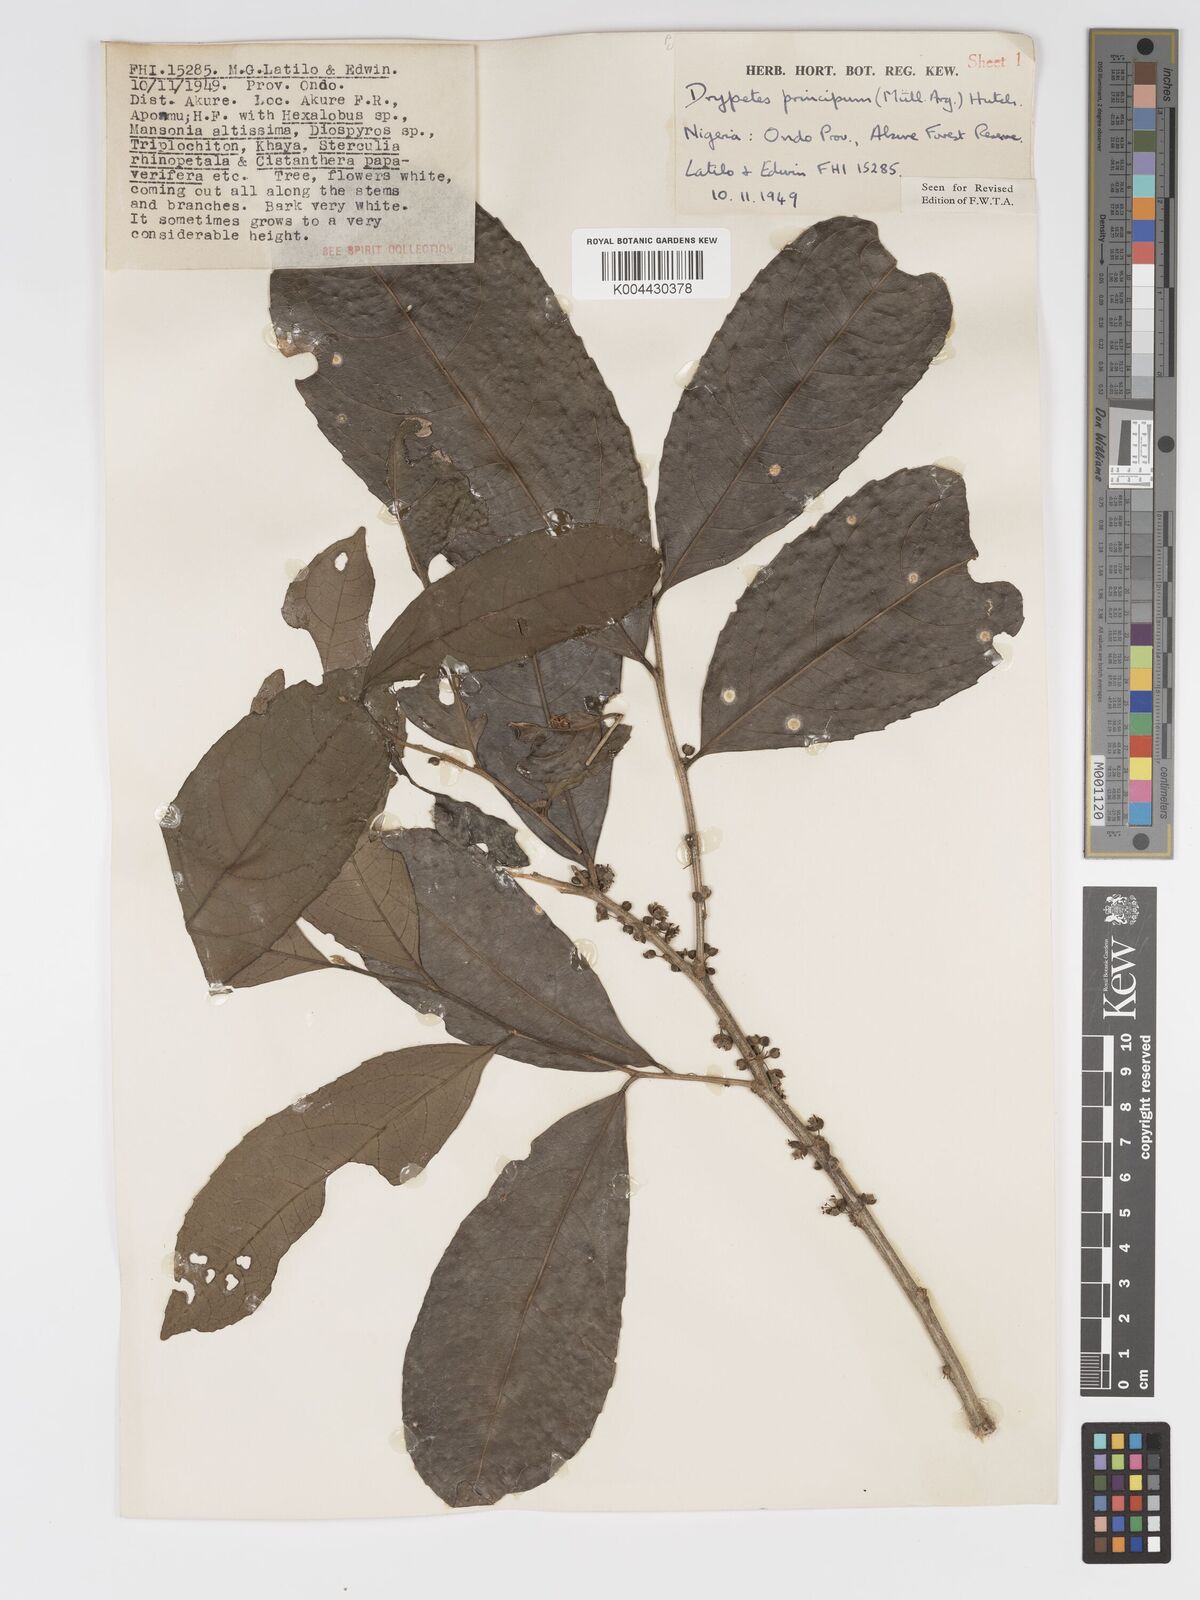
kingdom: Plantae
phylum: Tracheophyta
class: Magnoliopsida
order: Malpighiales
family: Putranjivaceae
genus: Drypetes
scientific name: Drypetes principum
